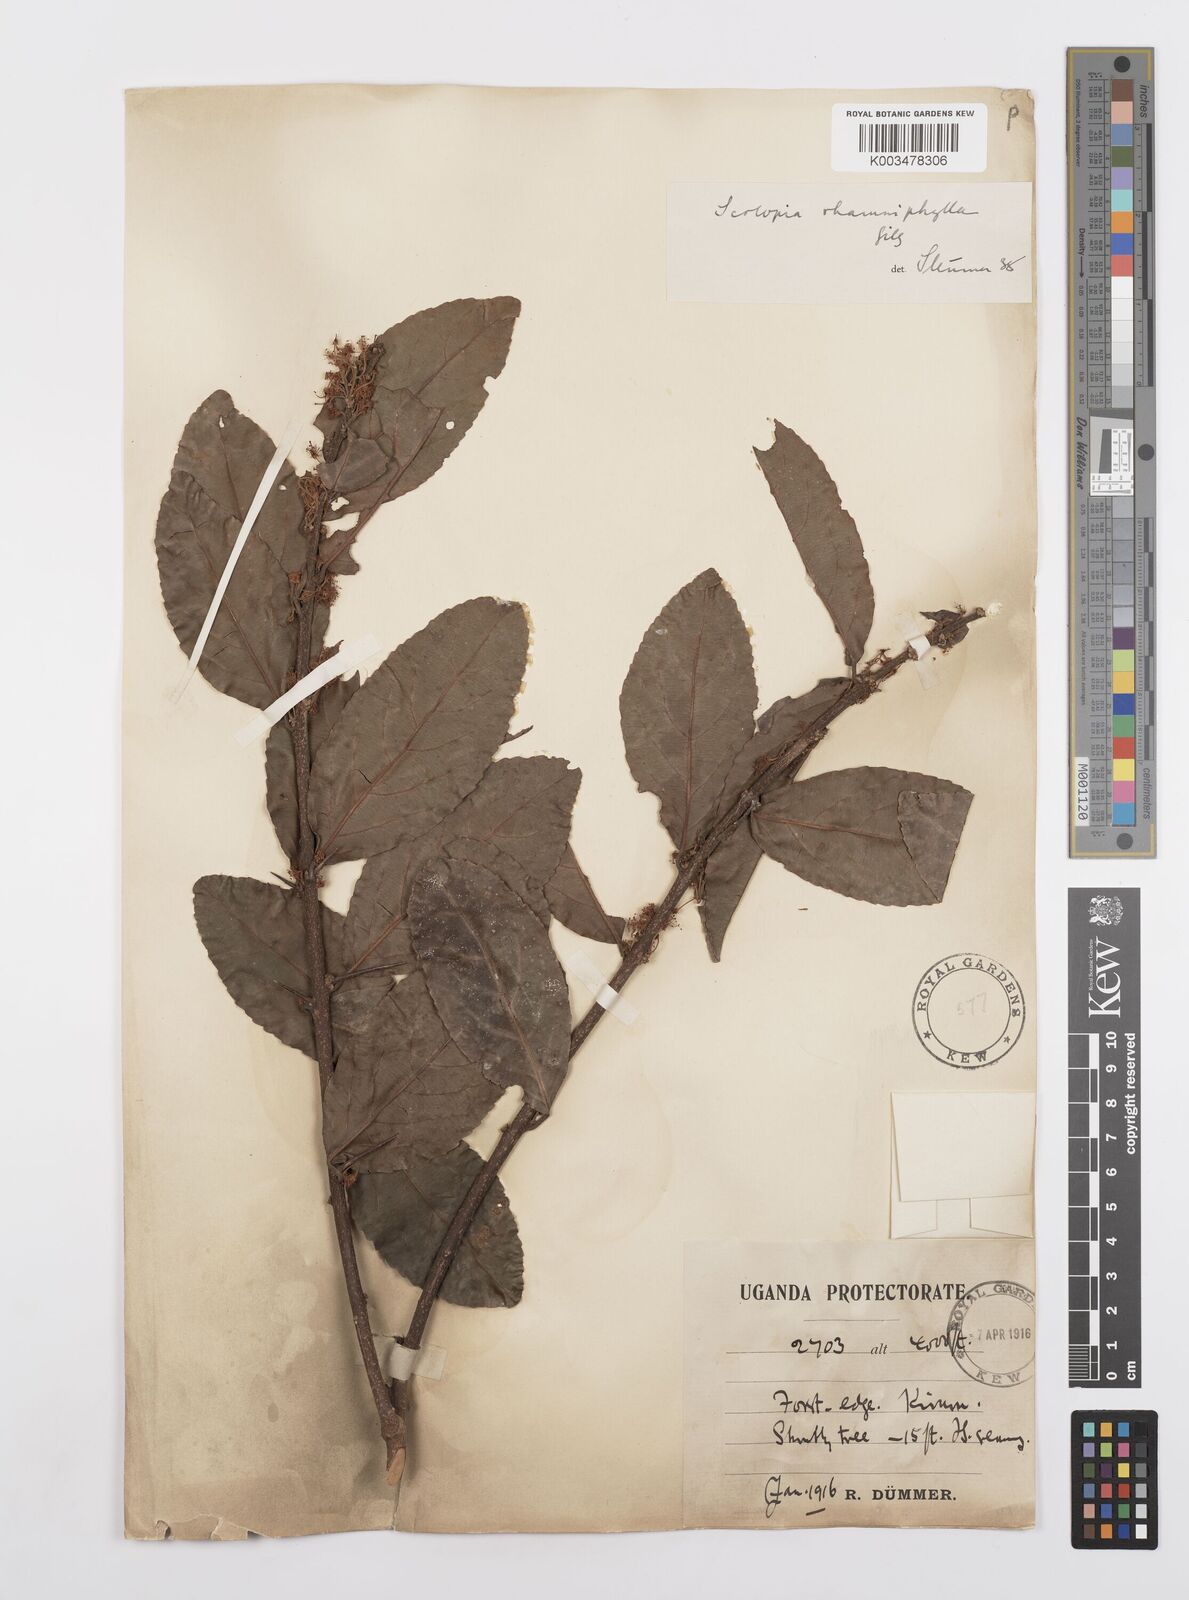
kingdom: Plantae
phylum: Tracheophyta
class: Magnoliopsida
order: Malpighiales
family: Salicaceae
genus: Scolopia
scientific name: Scolopia rhamniphylla
